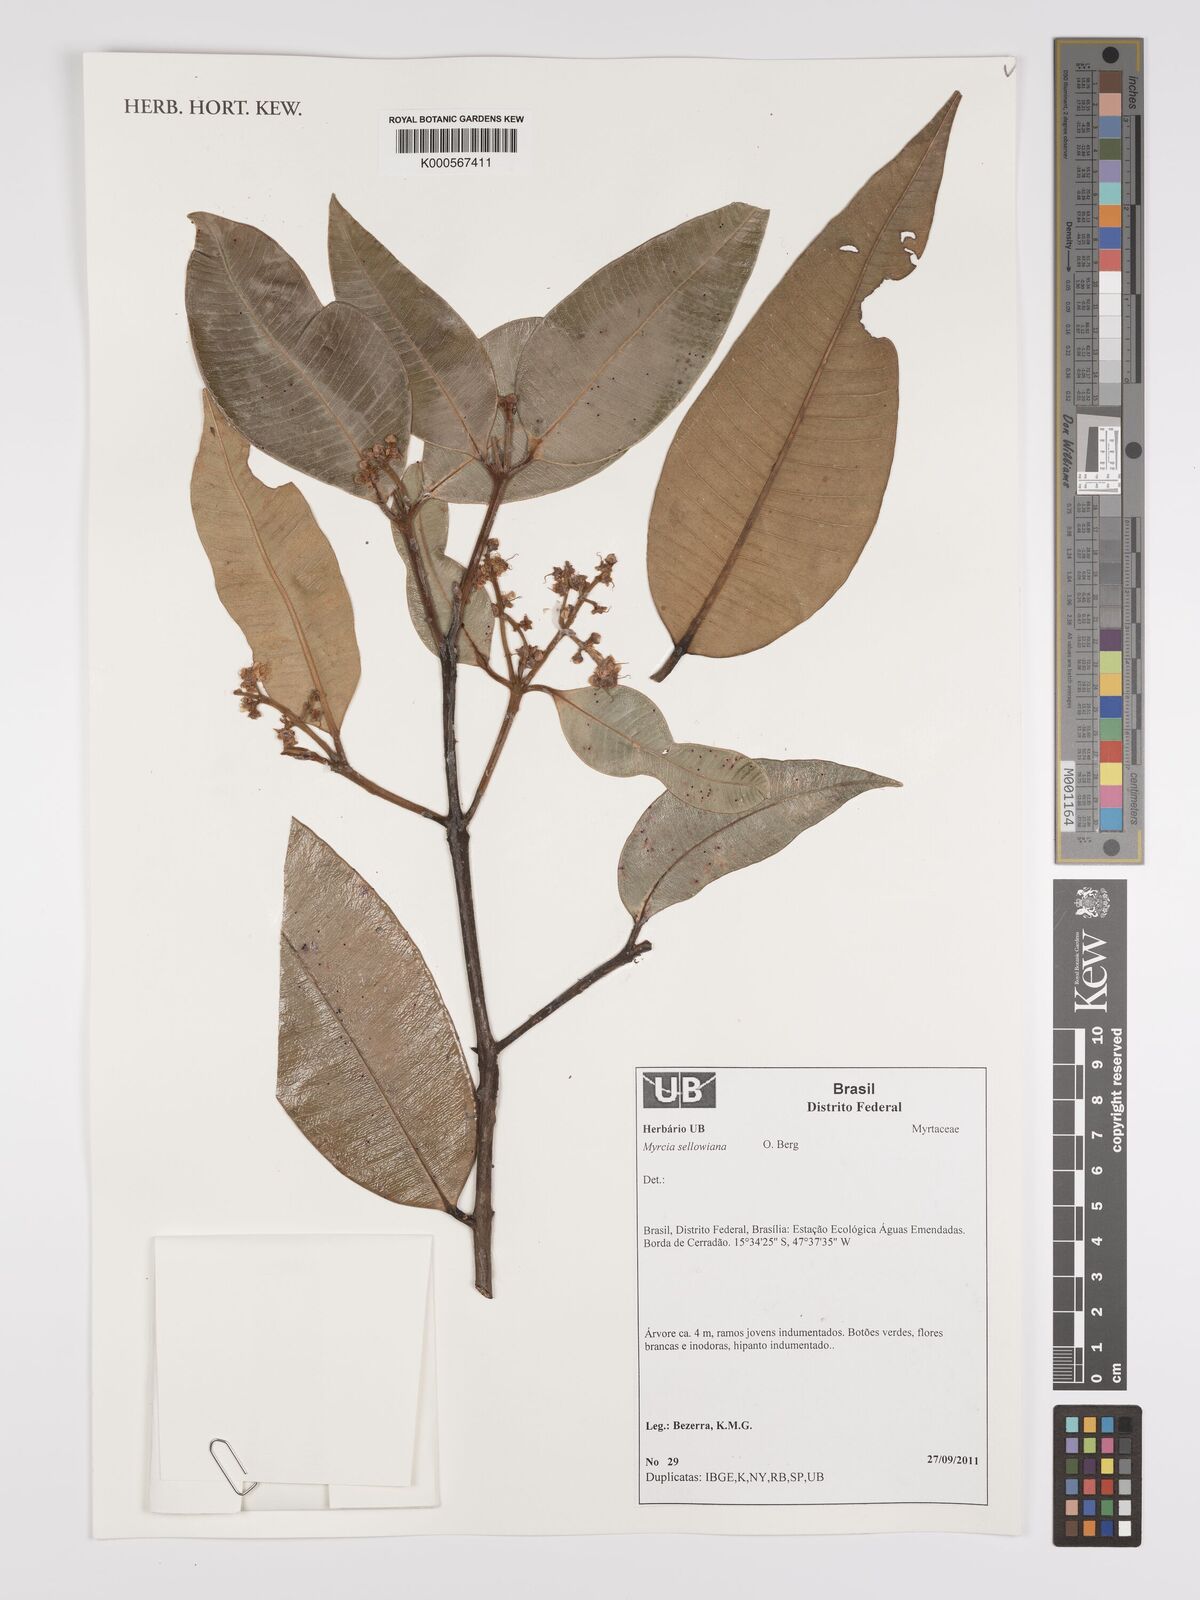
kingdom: Plantae
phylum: Tracheophyta
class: Magnoliopsida
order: Myrtales
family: Myrtaceae
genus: Myrcia
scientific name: Myrcia splendens
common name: Surinam cherry
